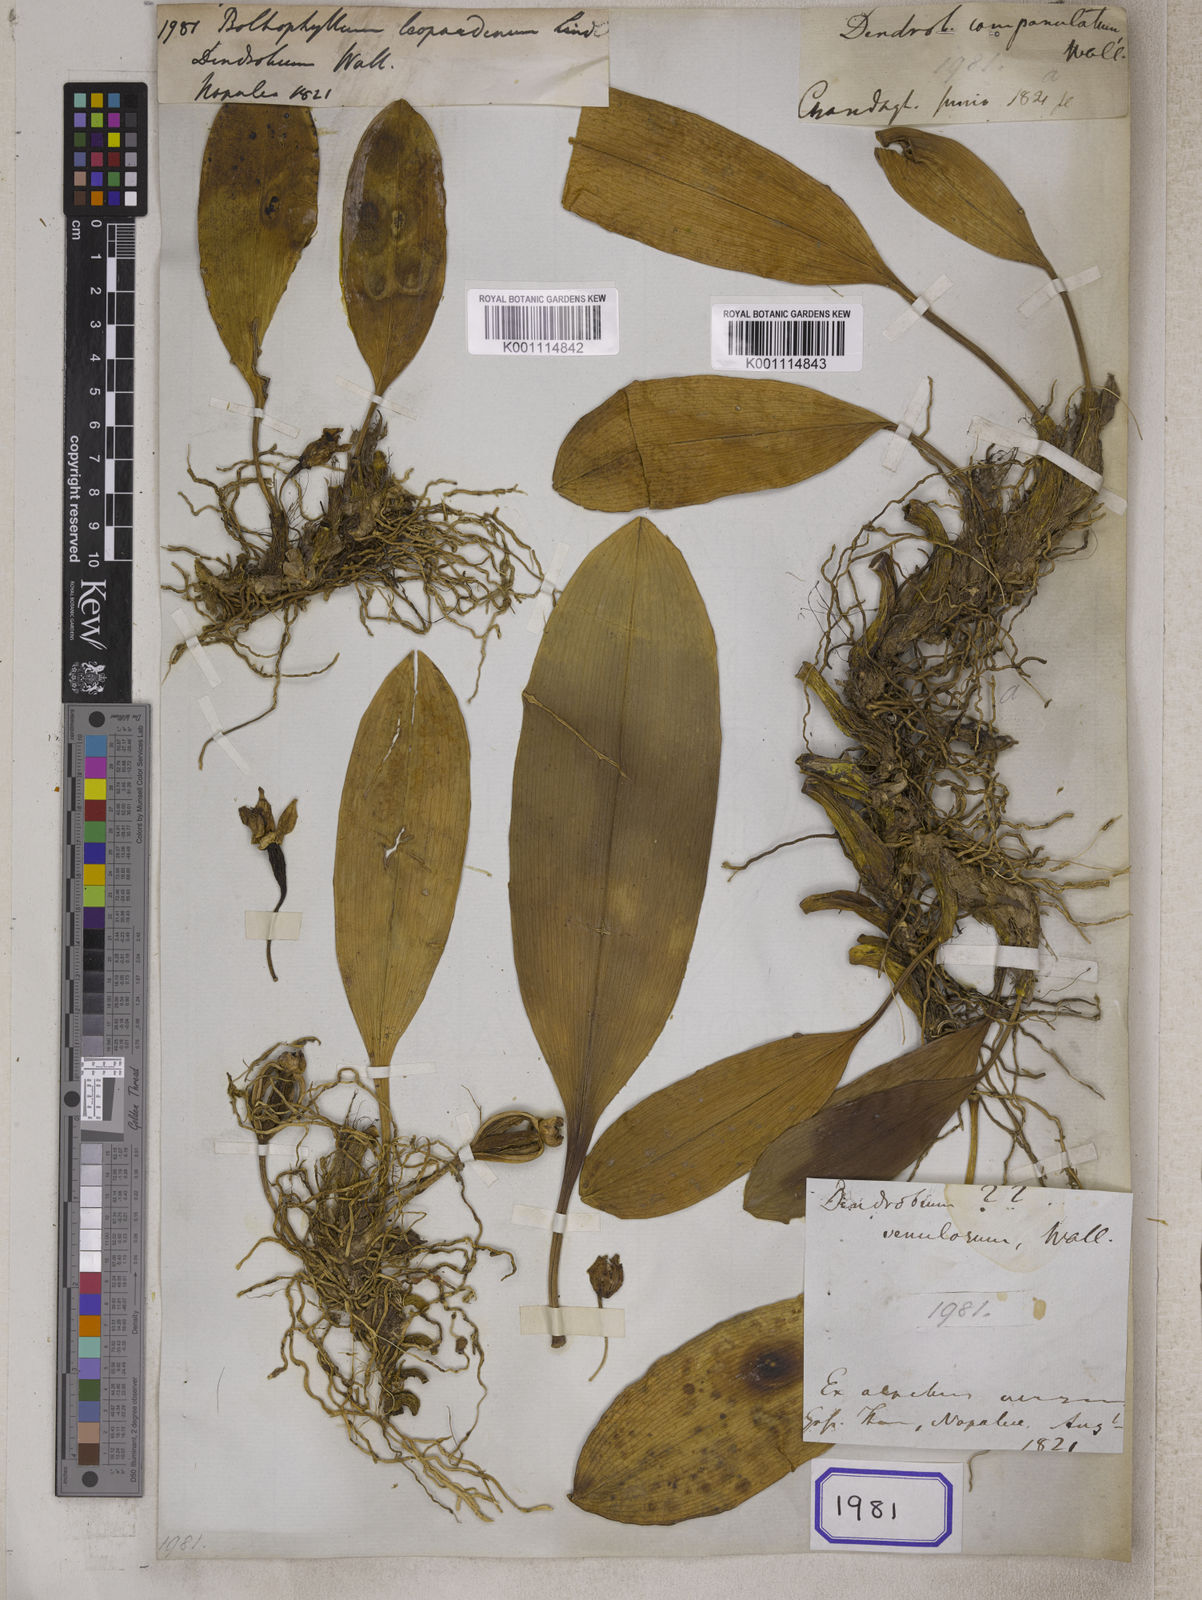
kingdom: Plantae
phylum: Tracheophyta
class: Liliopsida
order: Asparagales
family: Orchidaceae
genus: Bulbophyllum
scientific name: Bulbophyllum leopardinum
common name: Leopard spotted bulbophyllum
